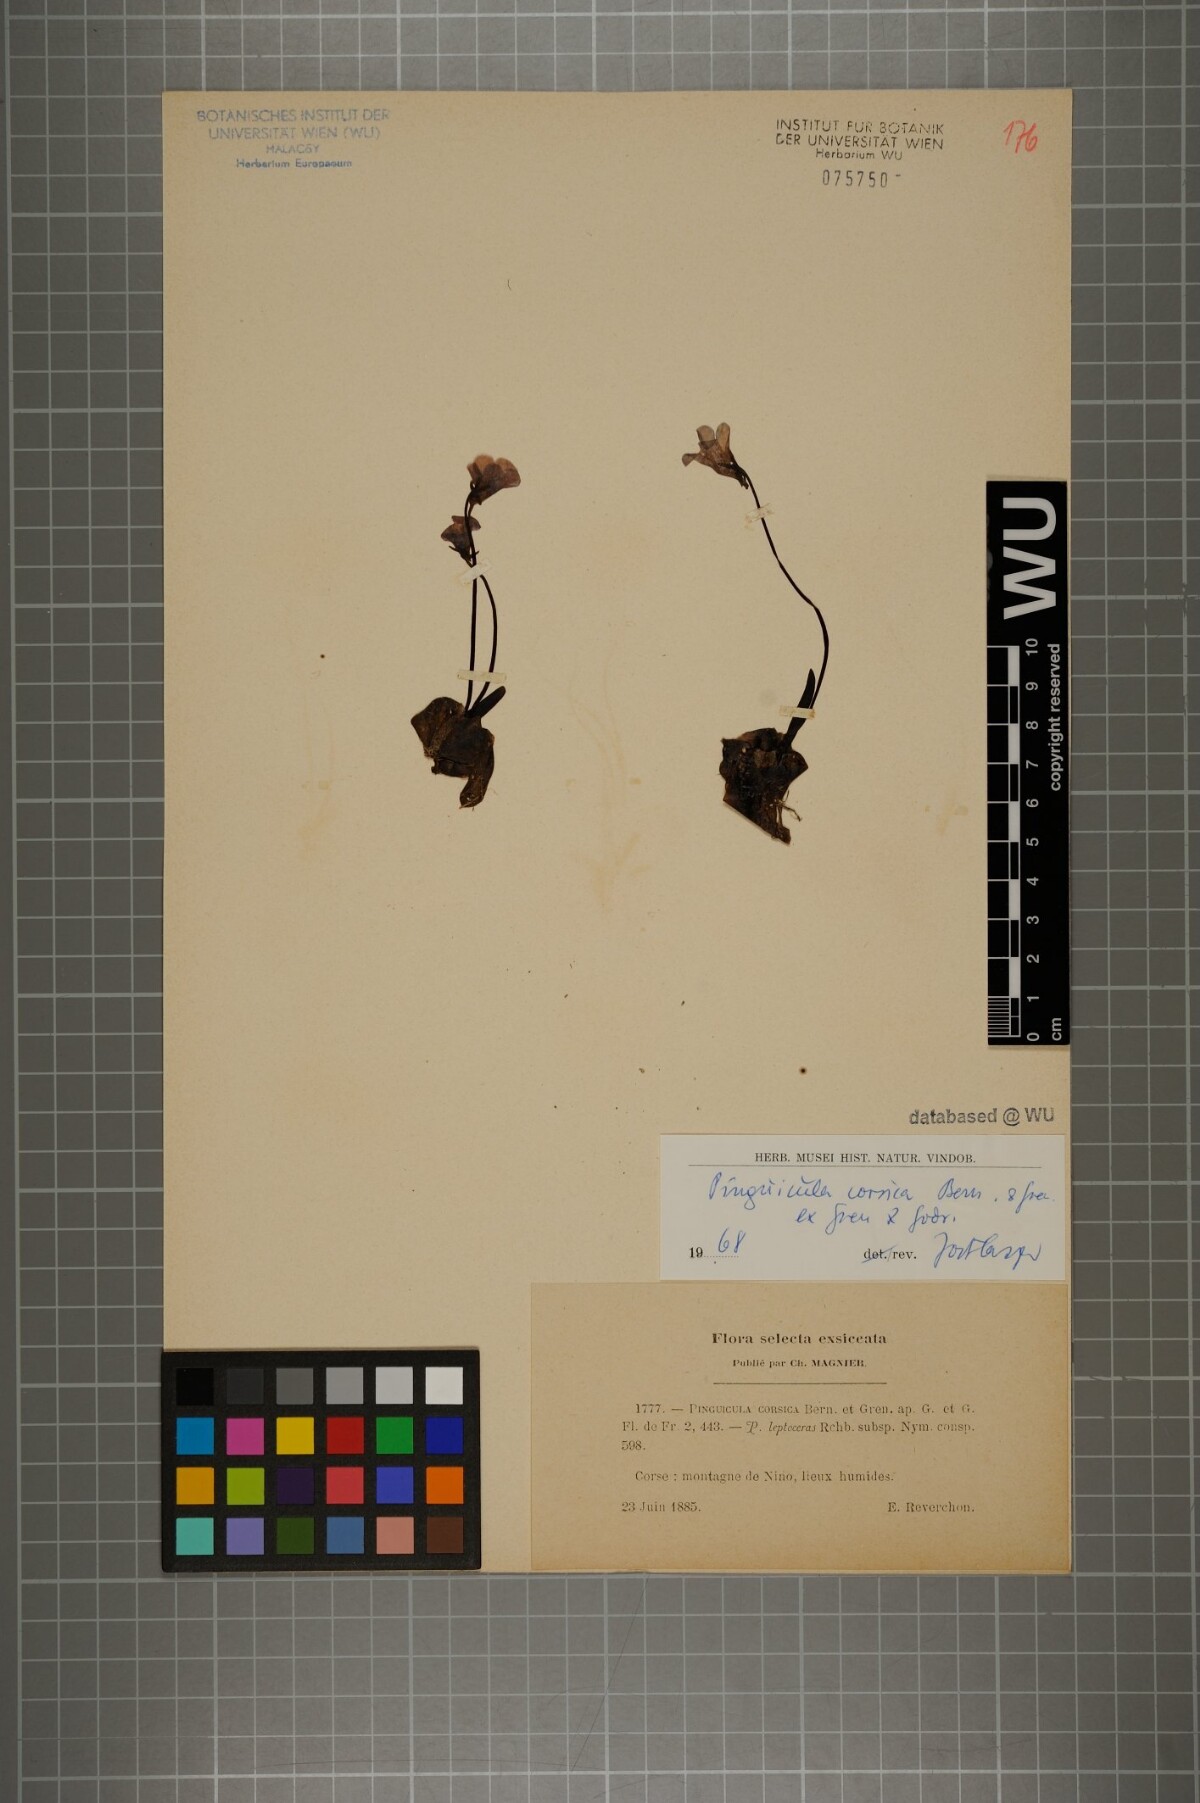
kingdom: Plantae
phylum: Tracheophyta
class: Magnoliopsida
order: Lamiales
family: Lentibulariaceae
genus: Pinguicula
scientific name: Pinguicula corsica
